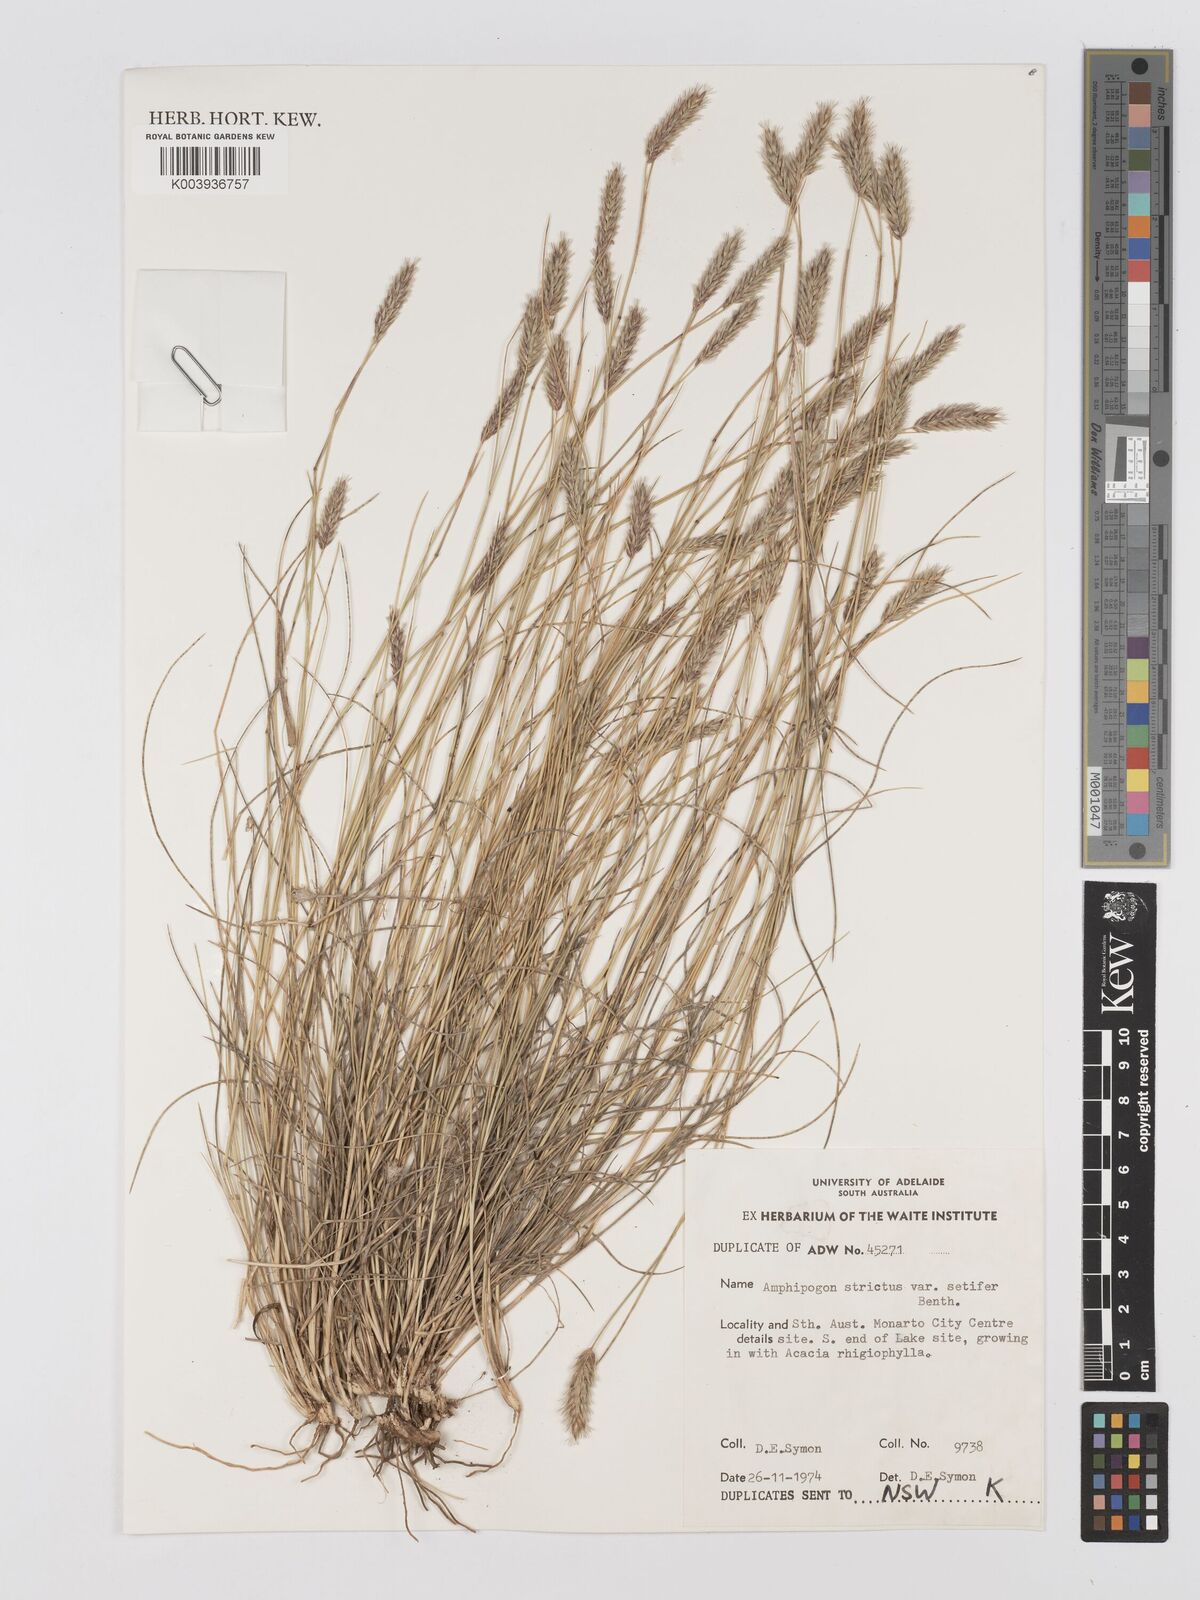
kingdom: Plantae
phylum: Tracheophyta
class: Liliopsida
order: Poales
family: Poaceae
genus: Amphipogon
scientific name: Amphipogon strictus
